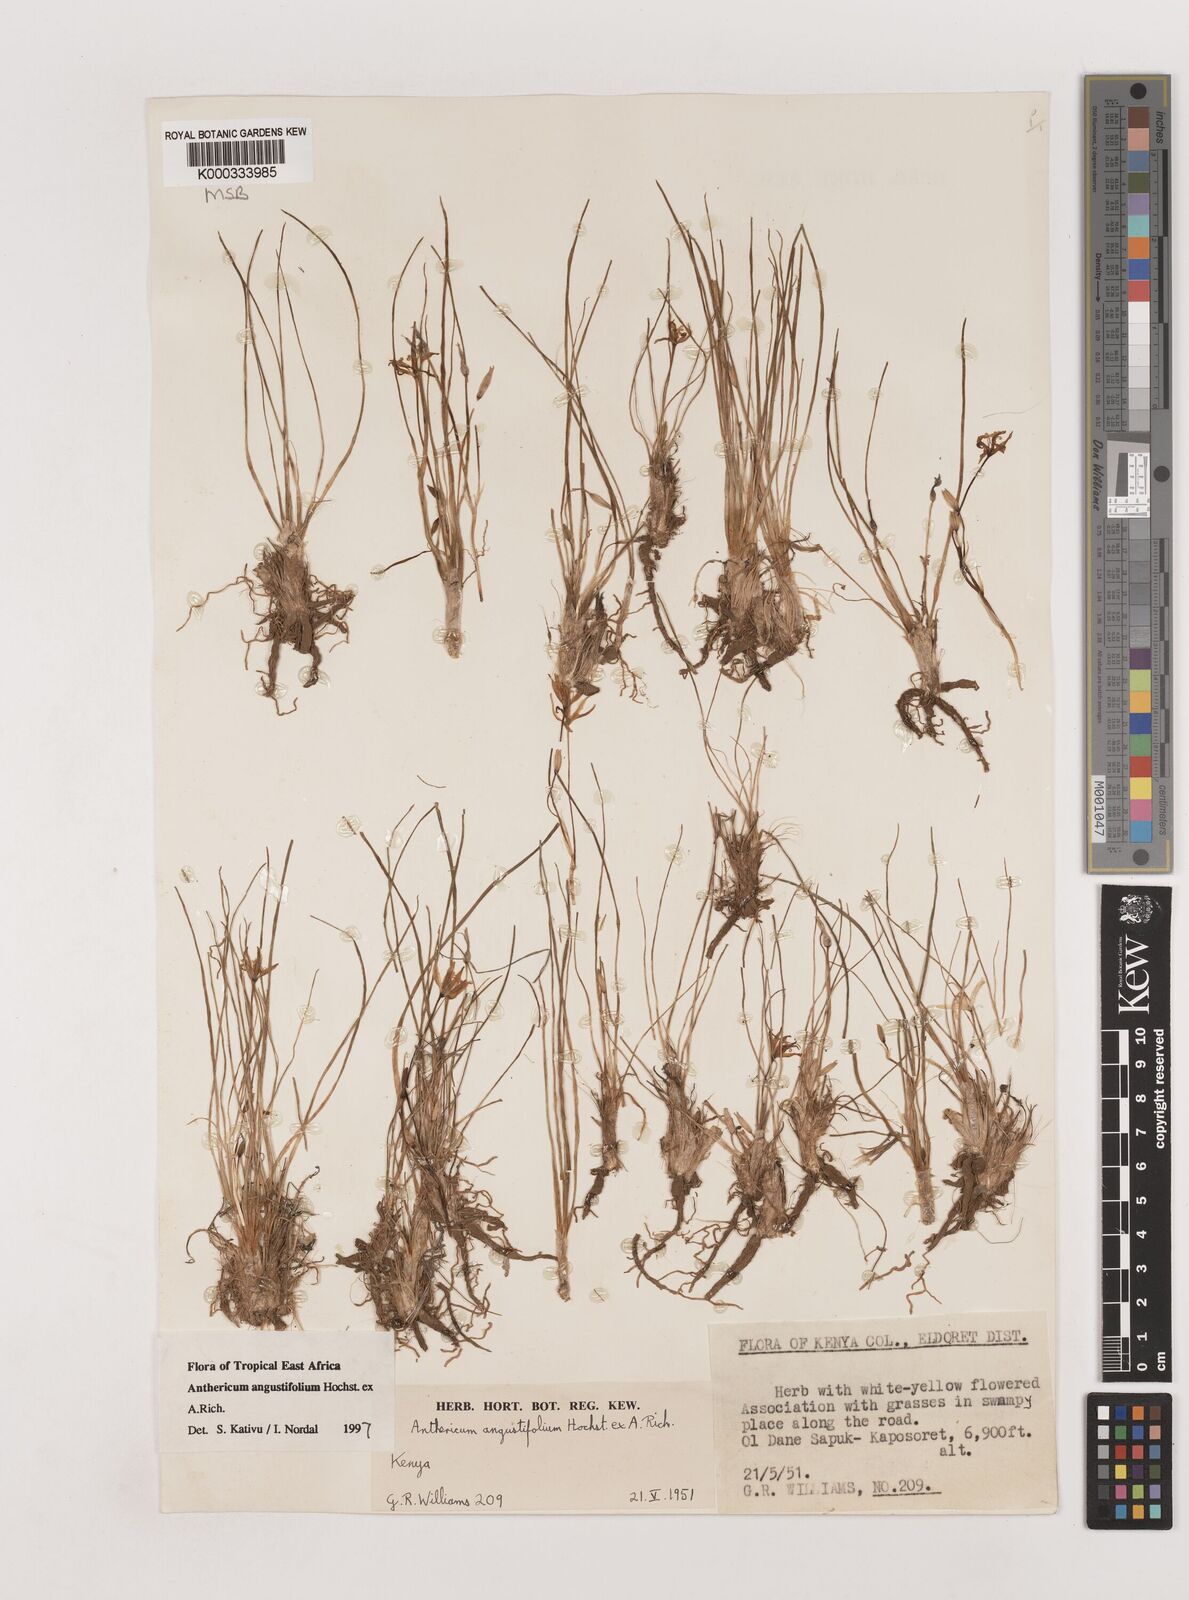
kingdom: Plantae
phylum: Tracheophyta
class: Liliopsida
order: Asparagales
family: Asparagaceae
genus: Anthericum
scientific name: Anthericum angustifolium
